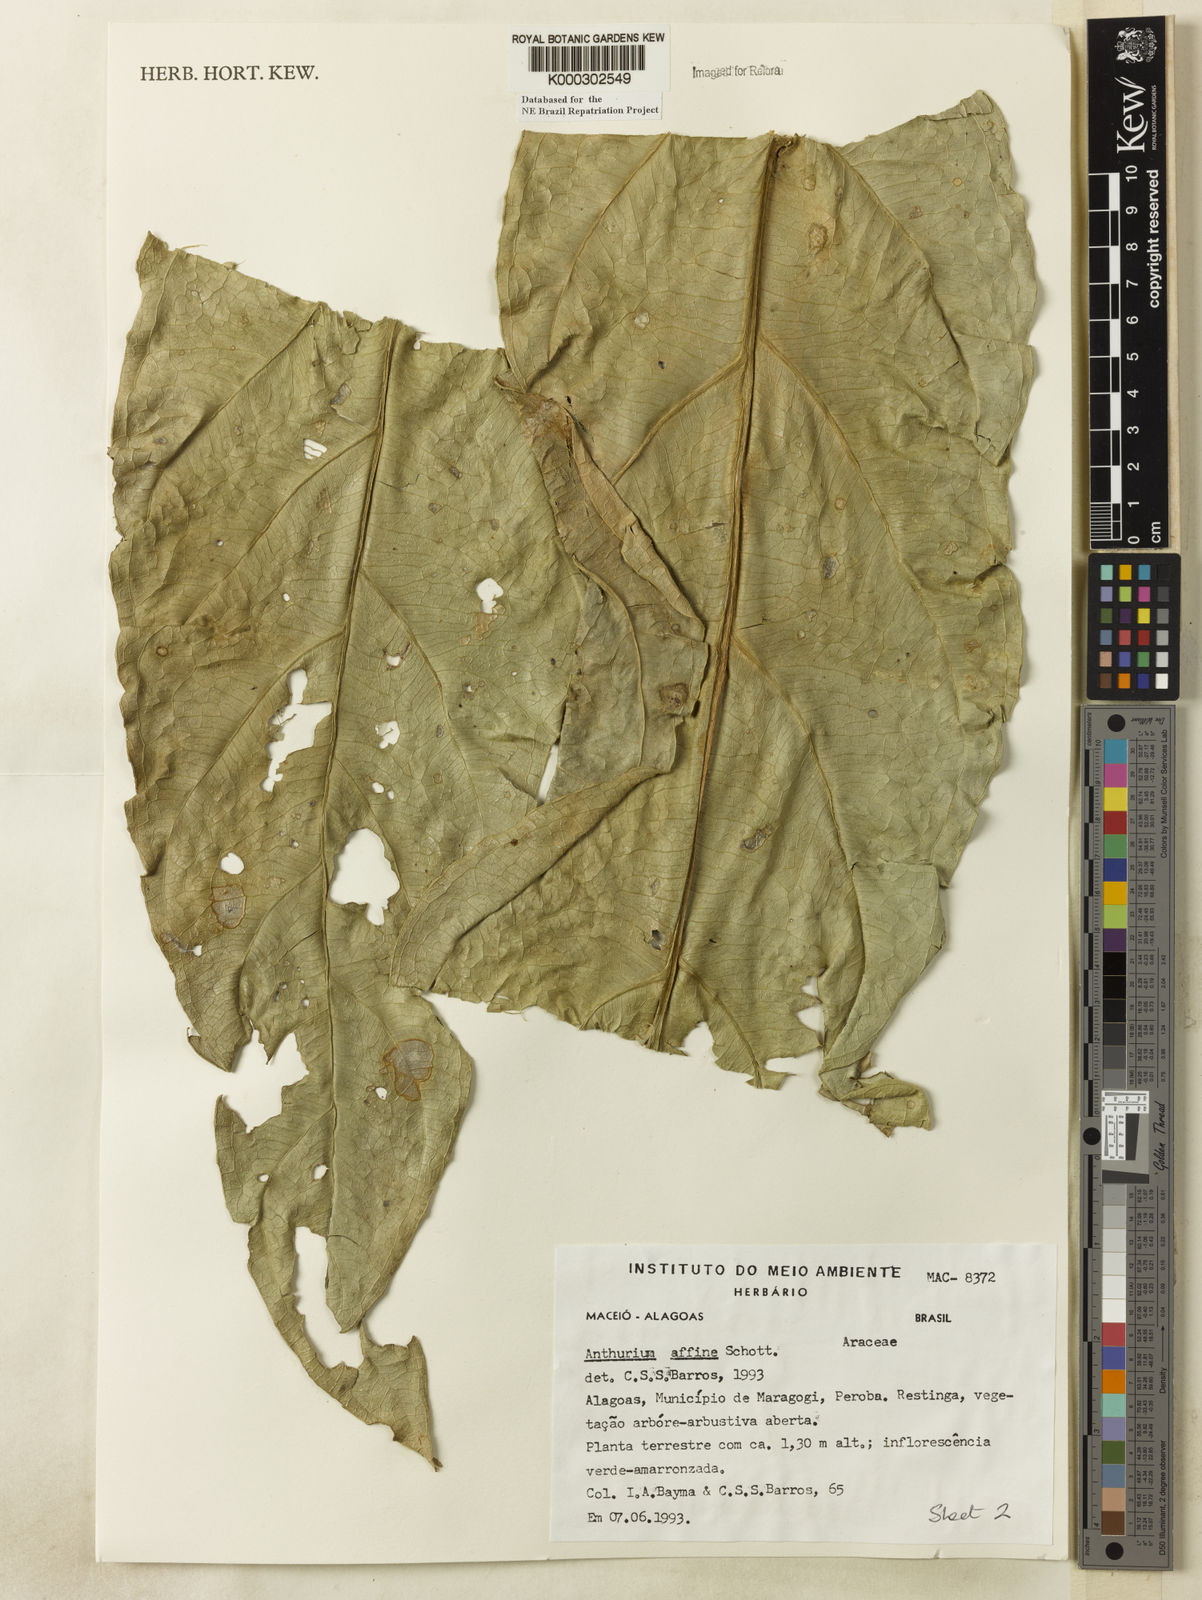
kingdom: Plantae
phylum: Tracheophyta
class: Liliopsida
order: Alismatales
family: Araceae
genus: Anthurium
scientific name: Anthurium affine
